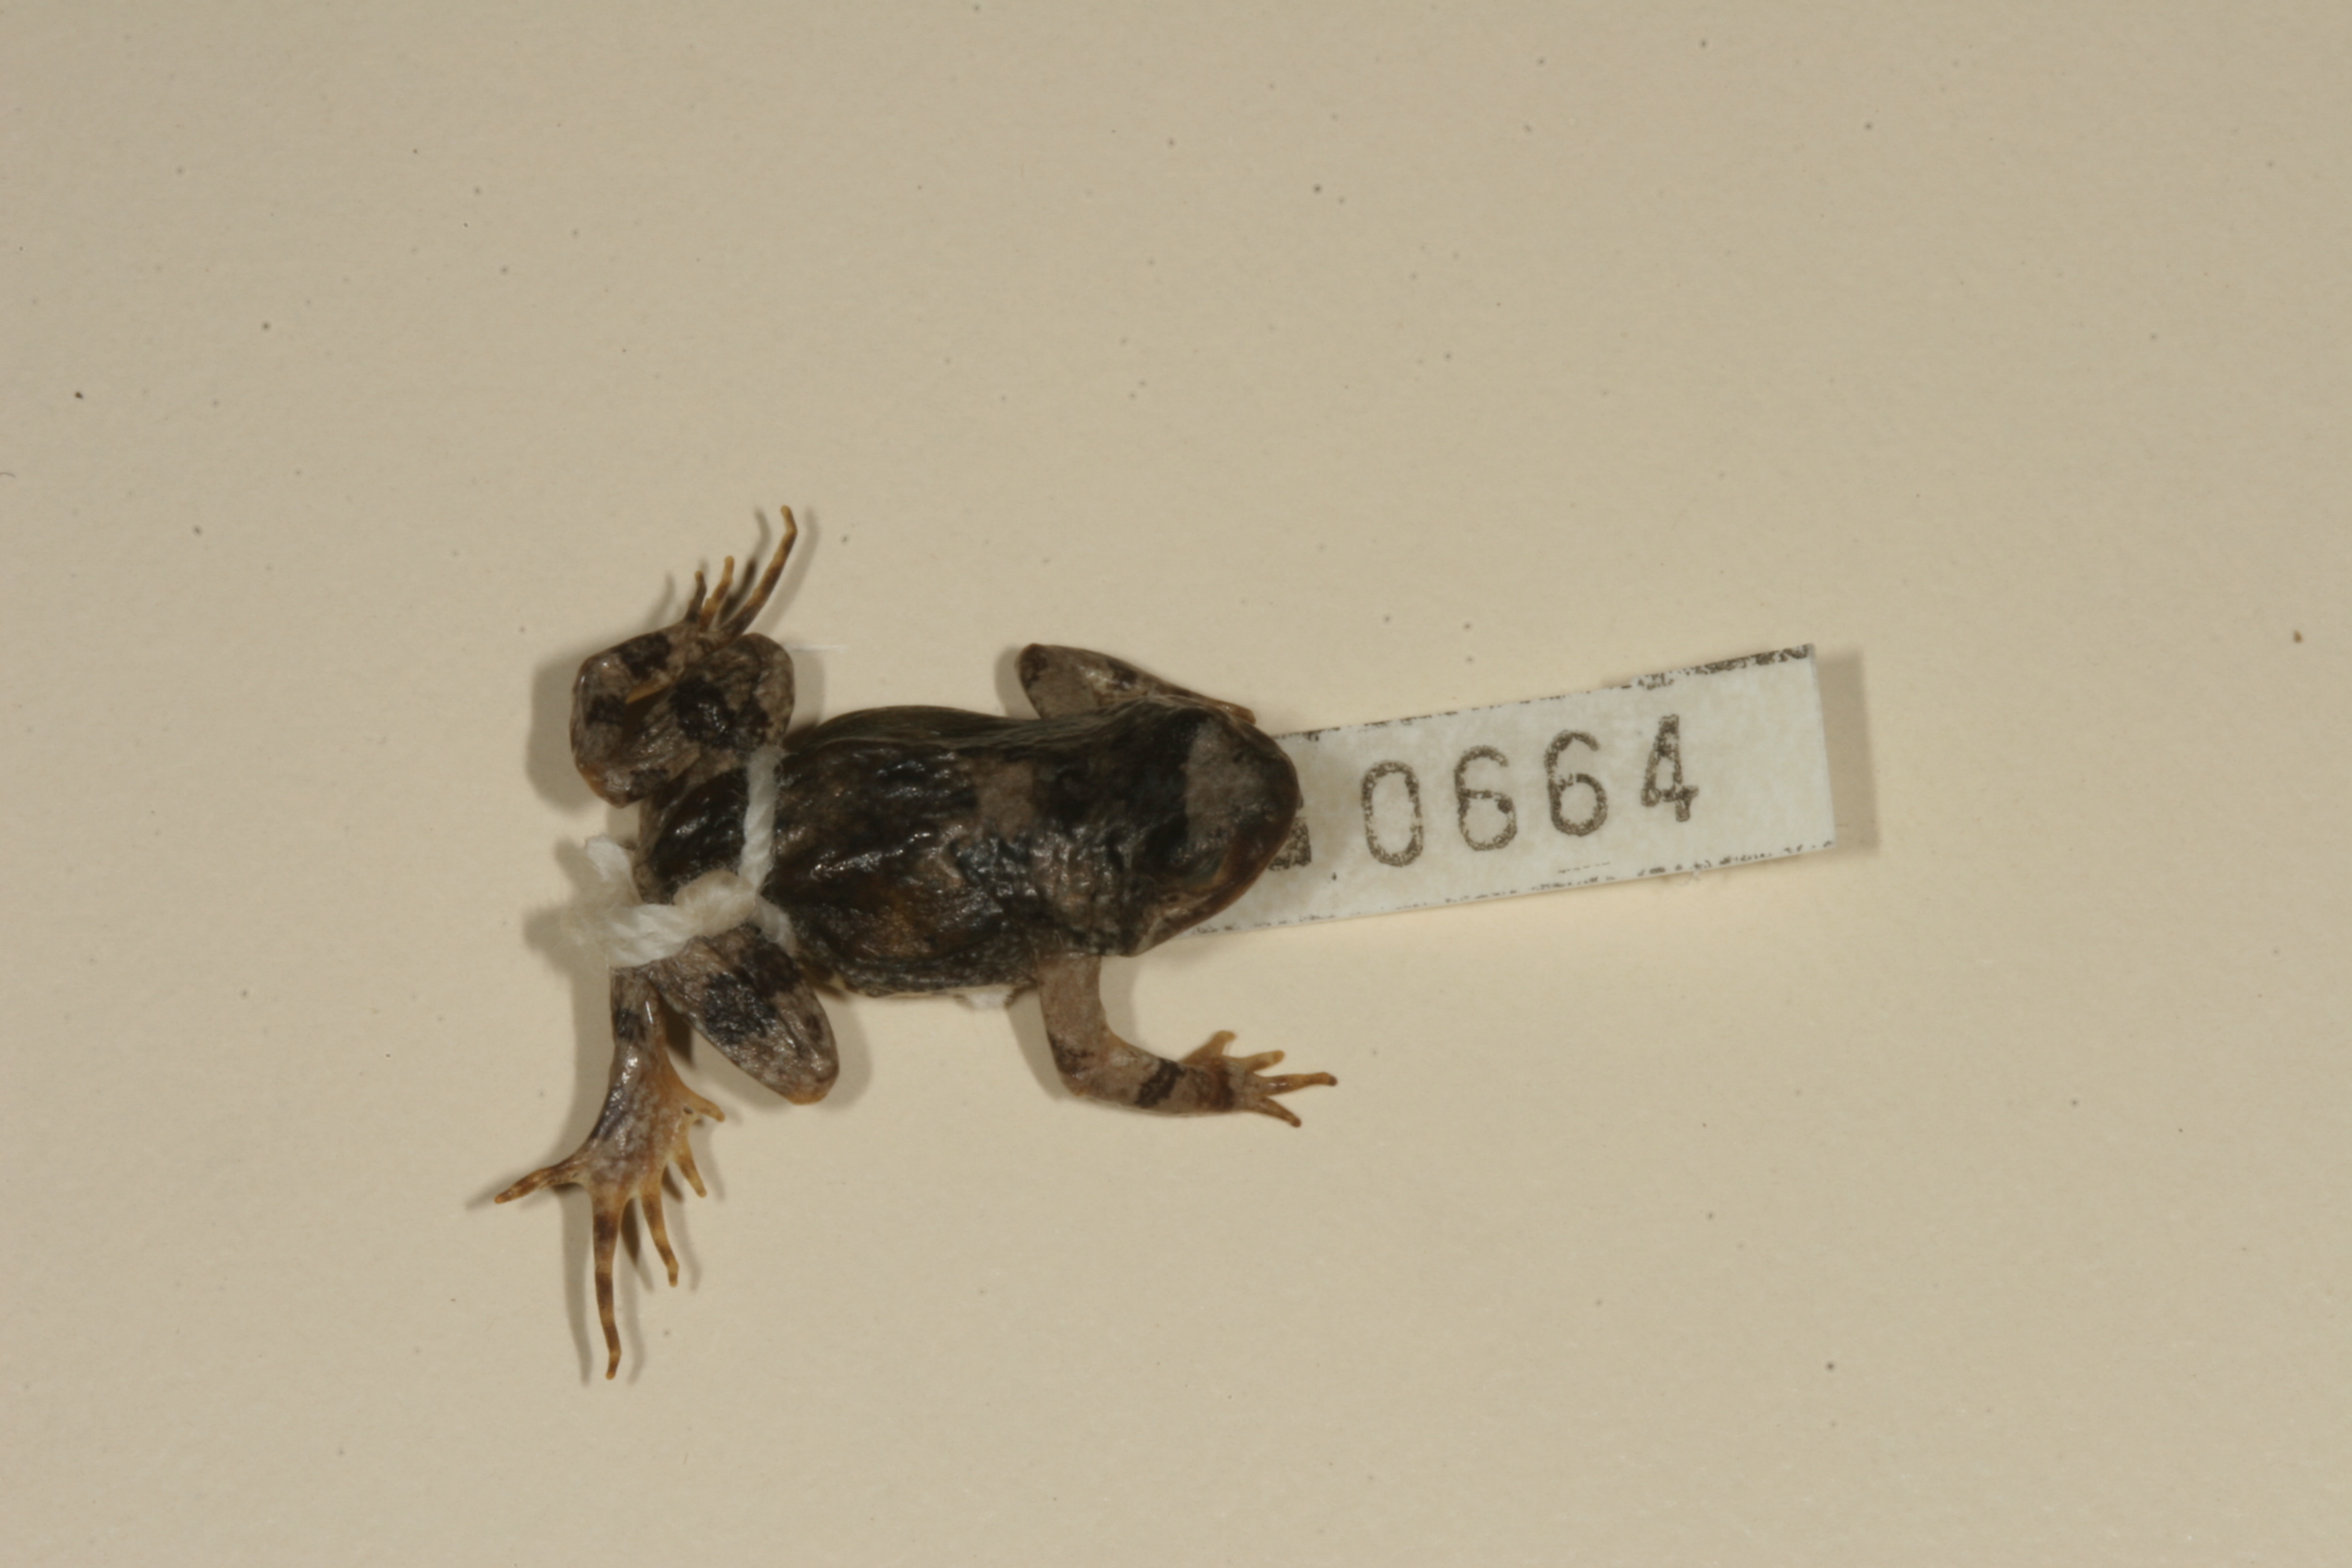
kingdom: Animalia
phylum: Chordata
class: Amphibia
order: Anura
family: Pyxicephalidae
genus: Cacosternum
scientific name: Cacosternum namaquense
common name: Namaqua caco
